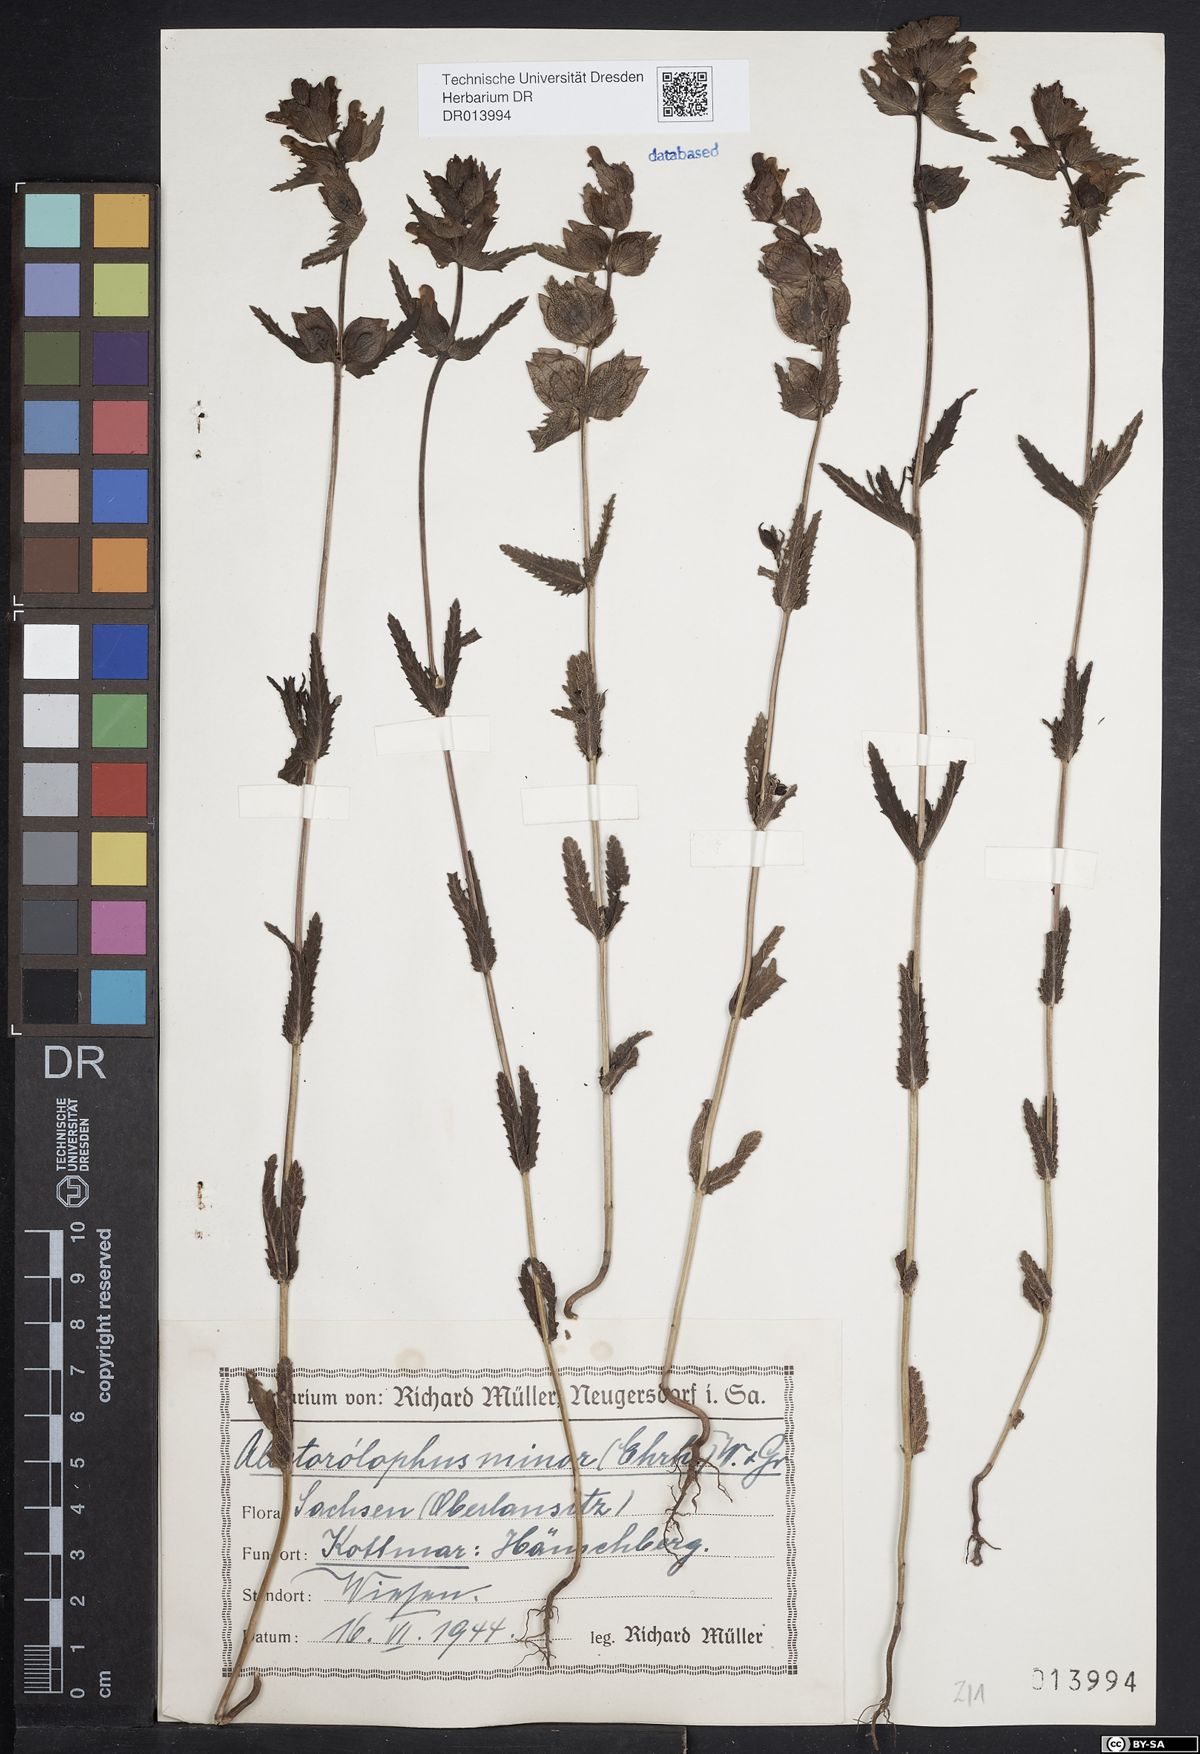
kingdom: Plantae
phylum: Tracheophyta
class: Magnoliopsida
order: Lamiales
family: Orobanchaceae
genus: Rhinanthus
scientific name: Rhinanthus minor
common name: Yellow-rattle
